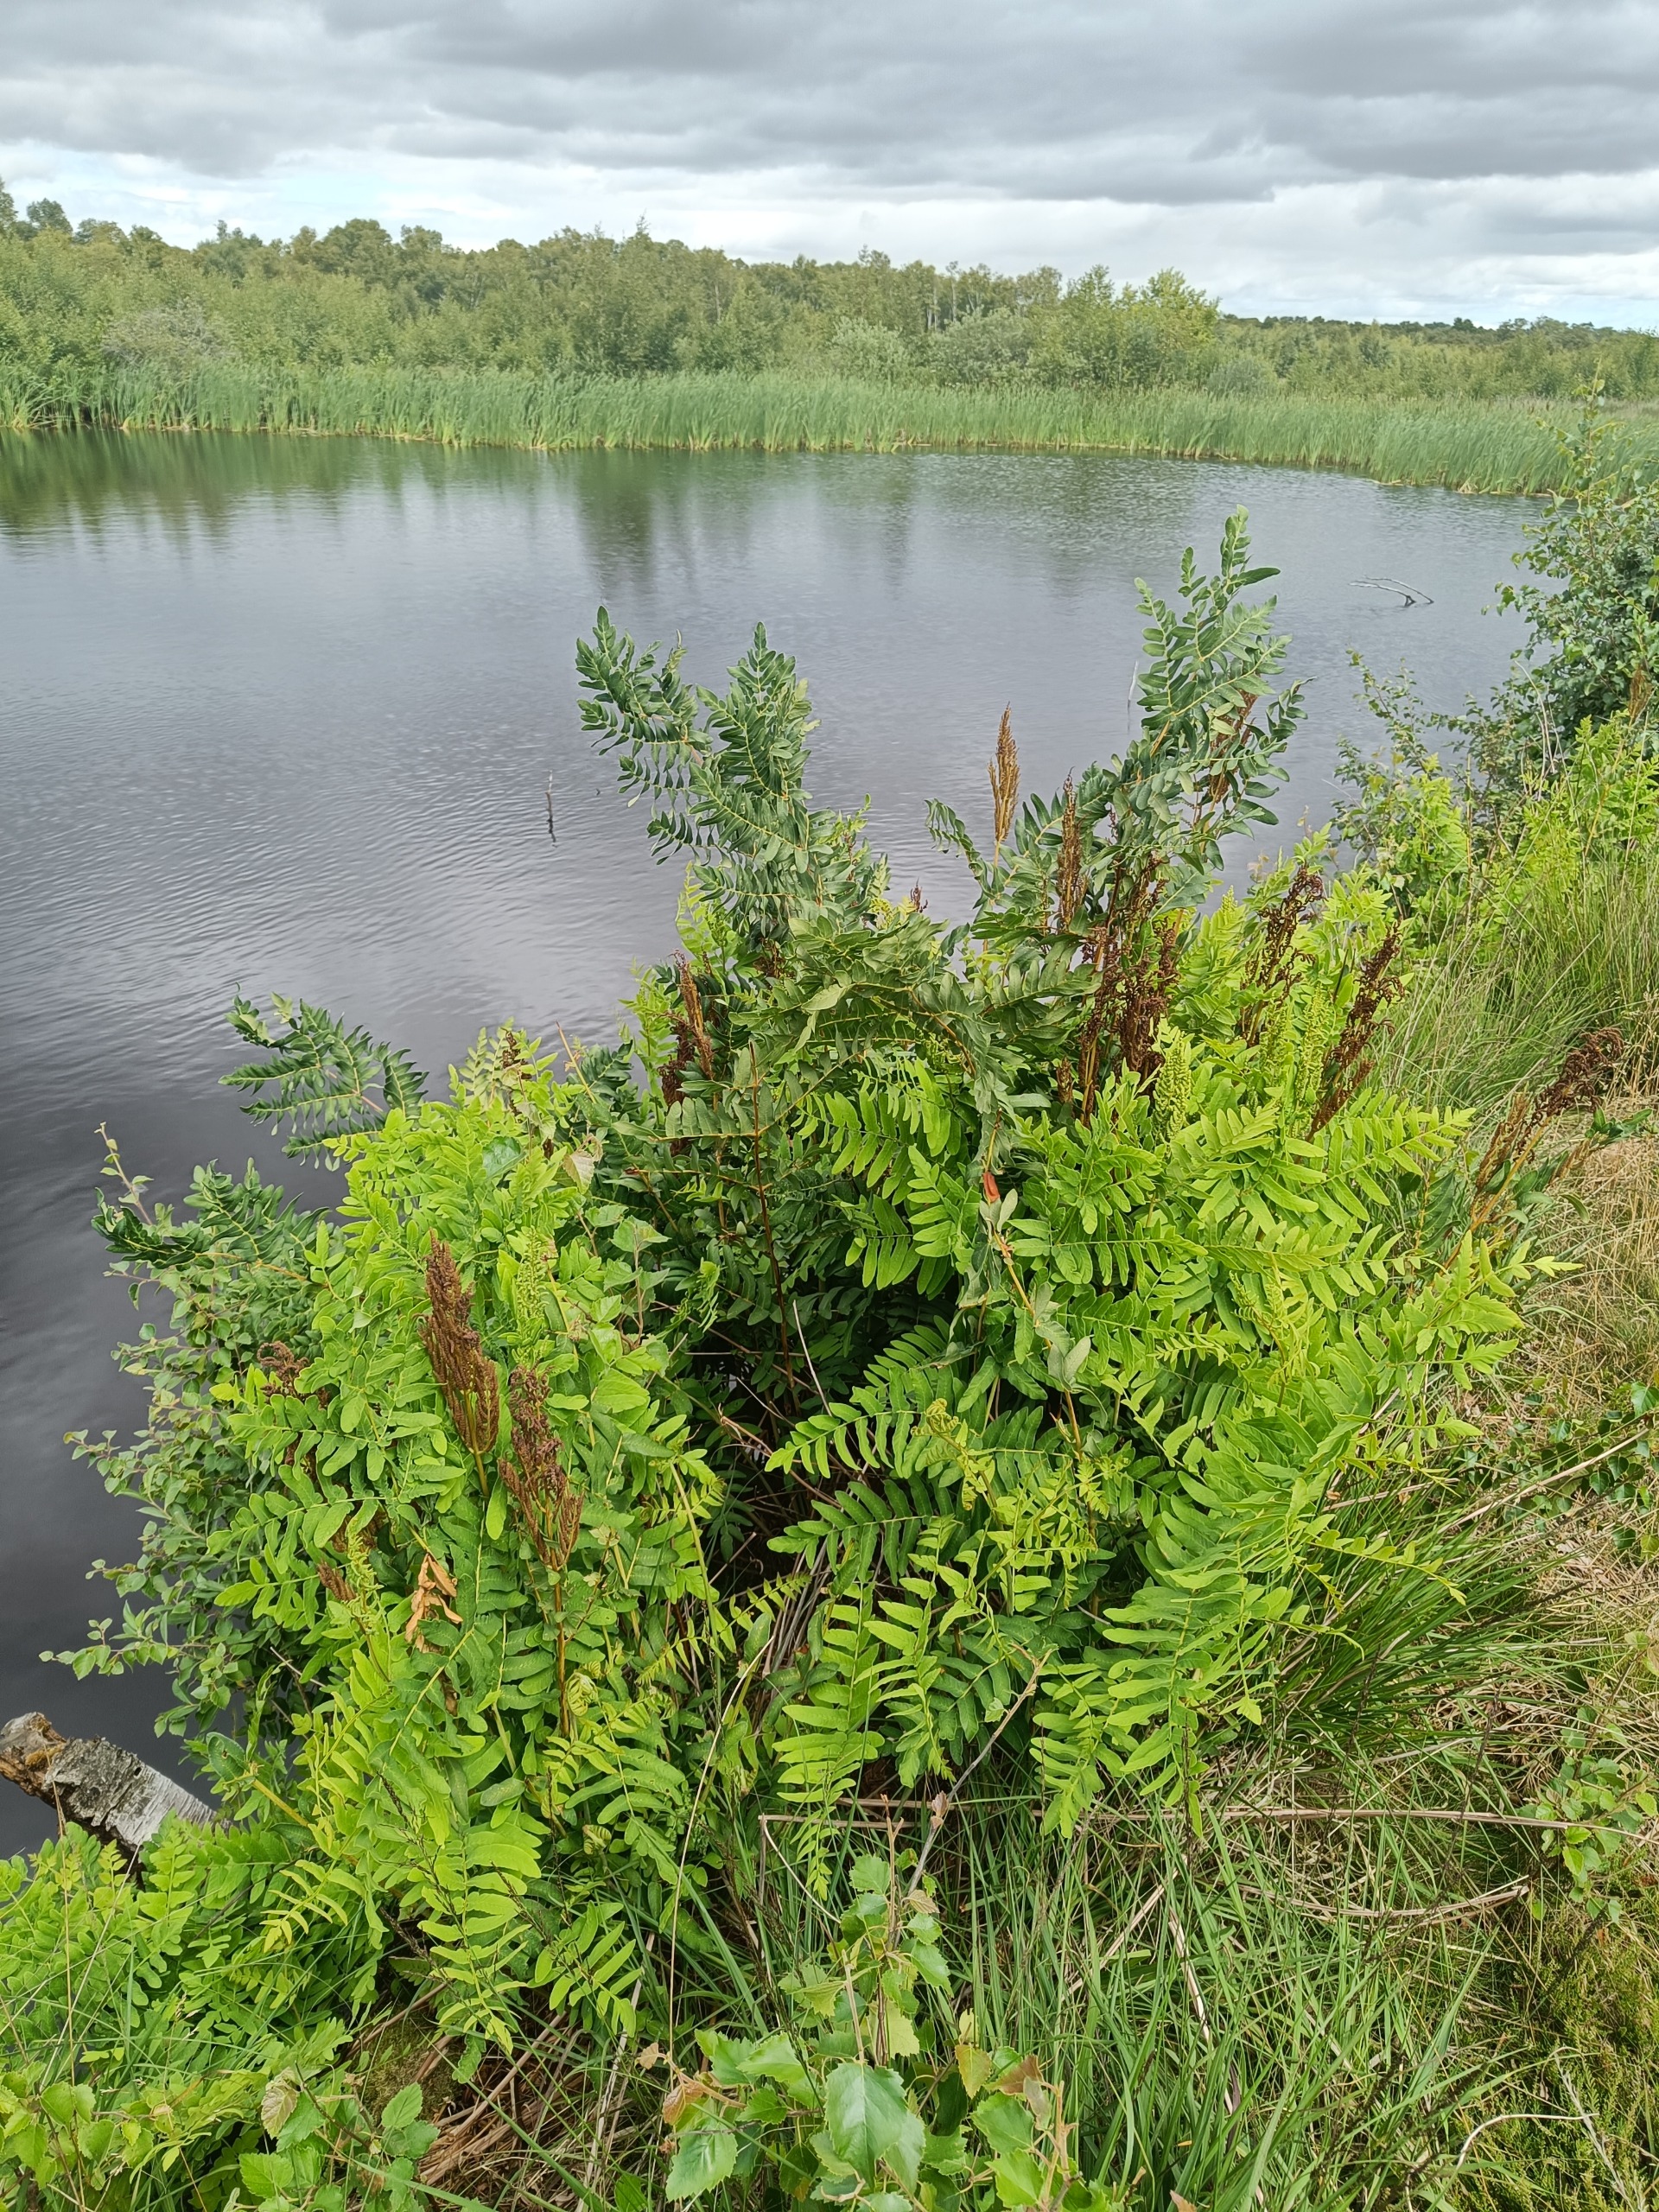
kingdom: Plantae
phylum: Tracheophyta
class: Polypodiopsida
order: Osmundales
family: Osmundaceae
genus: Osmunda
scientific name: Osmunda regalis
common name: Kongebregne
